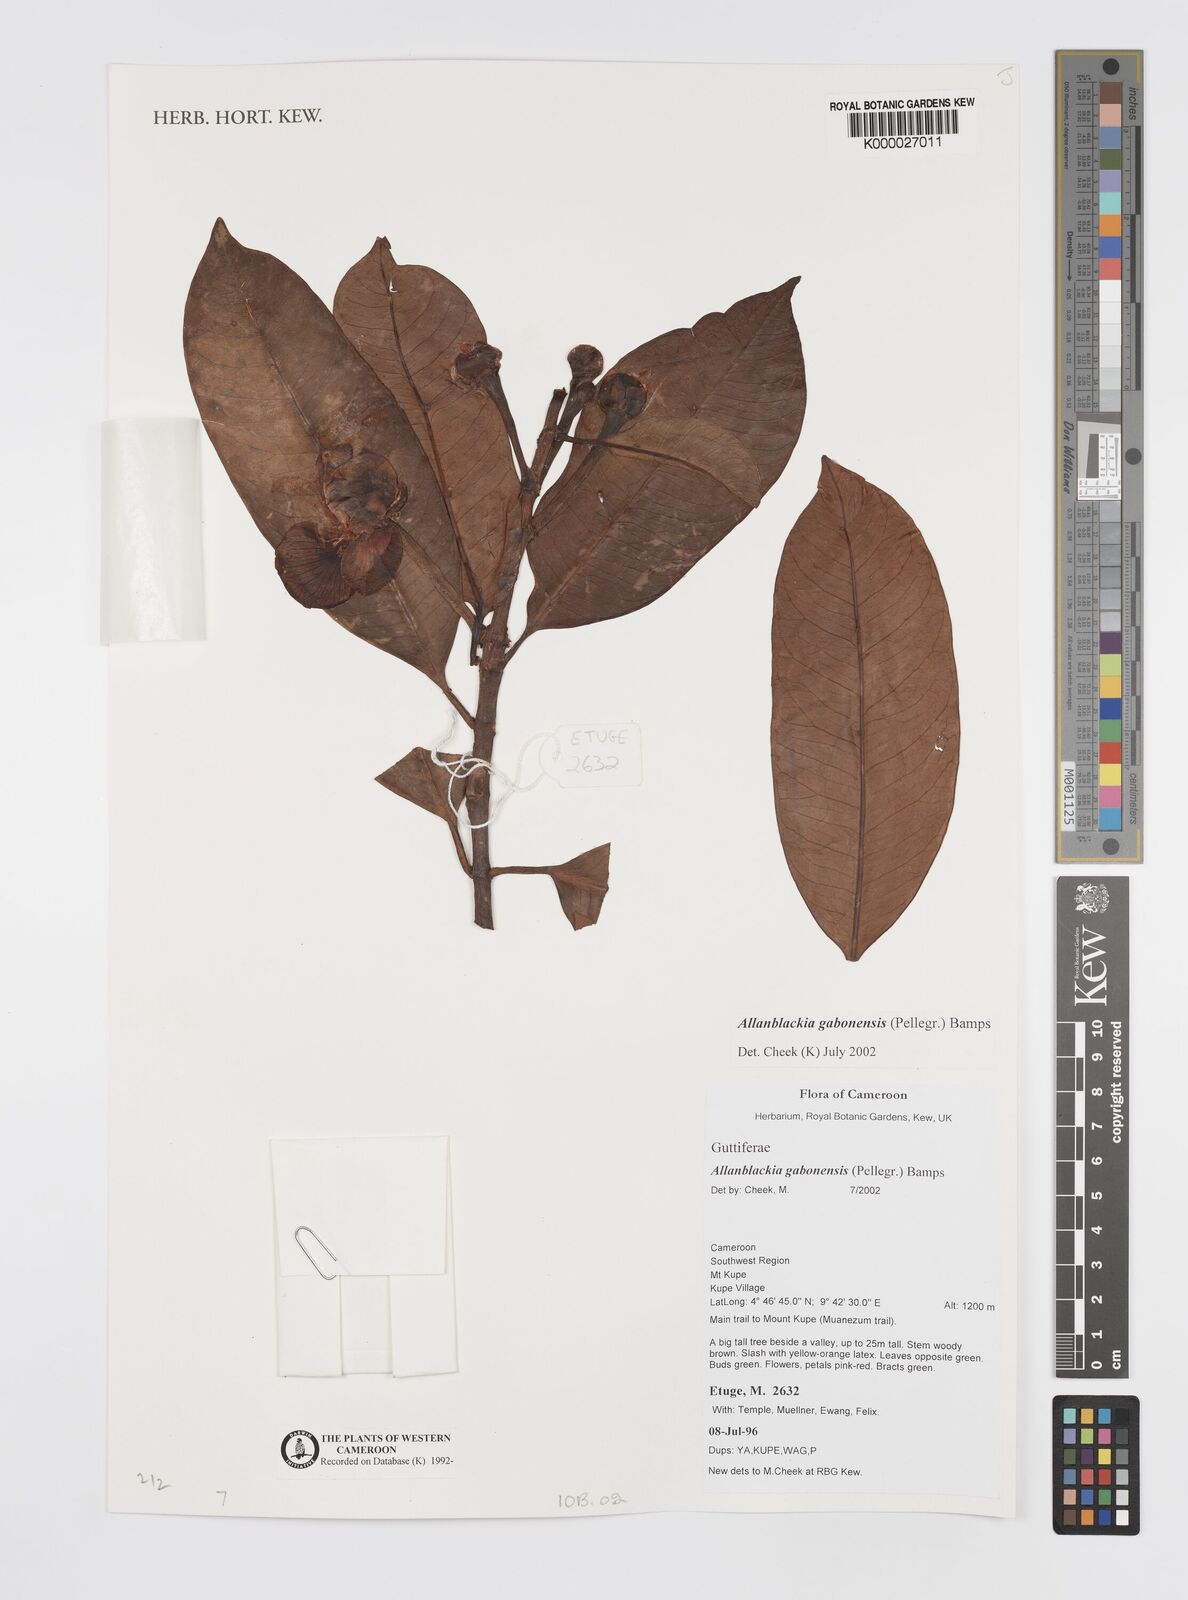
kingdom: Plantae
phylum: Tracheophyta
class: Magnoliopsida
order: Malpighiales
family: Clusiaceae
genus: Allanblackia
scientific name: Allanblackia gabonensis
